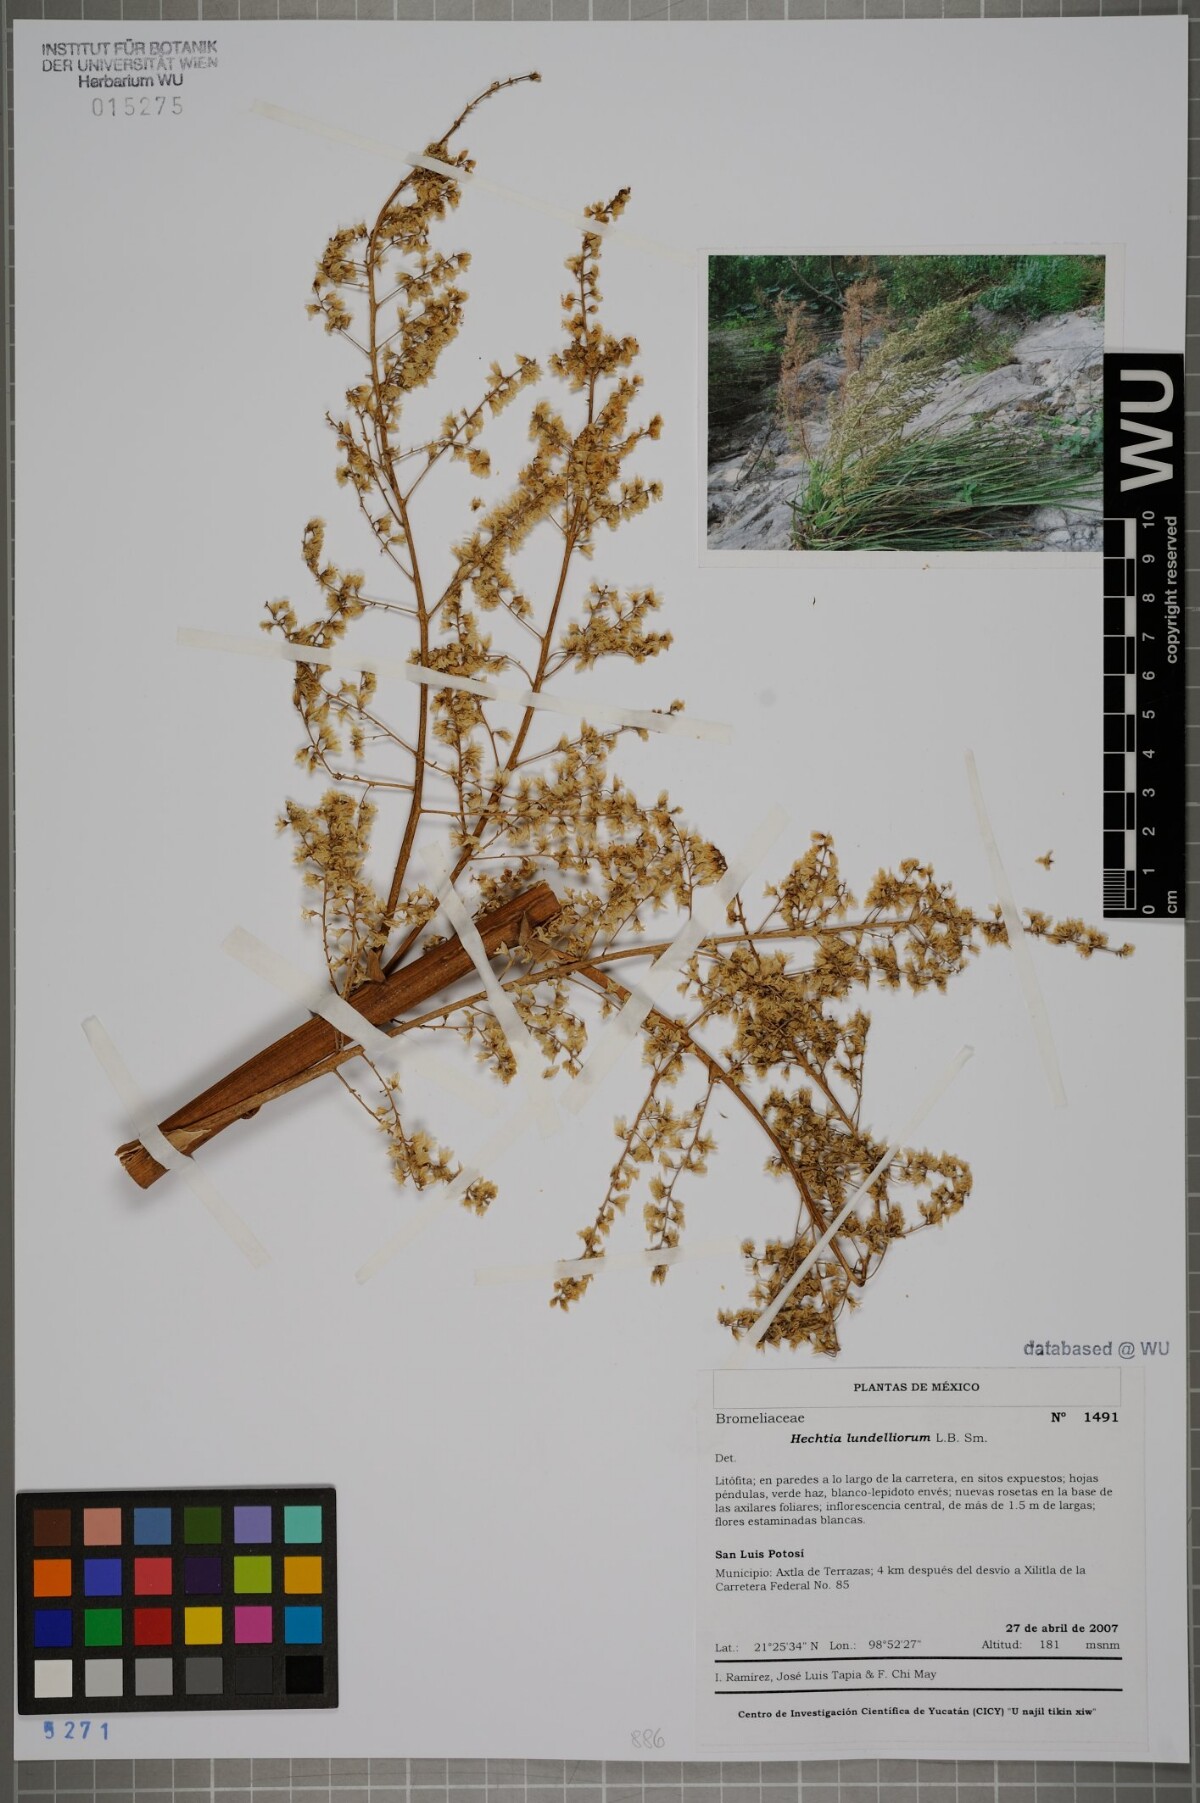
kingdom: Plantae
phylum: Tracheophyta
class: Liliopsida
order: Poales
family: Bromeliaceae
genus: Hechtia
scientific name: Hechtia lundelliorum
